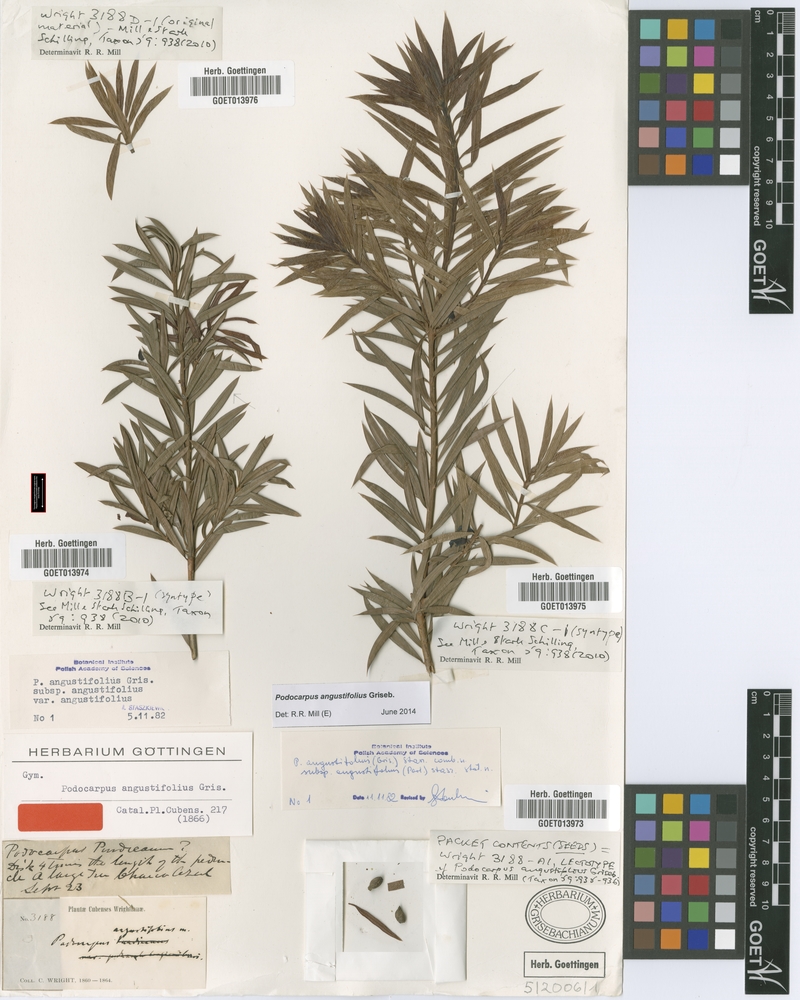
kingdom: Plantae
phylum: Tracheophyta
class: Pinopsida
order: Pinales
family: Podocarpaceae
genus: Podocarpus
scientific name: Podocarpus angustifolius
